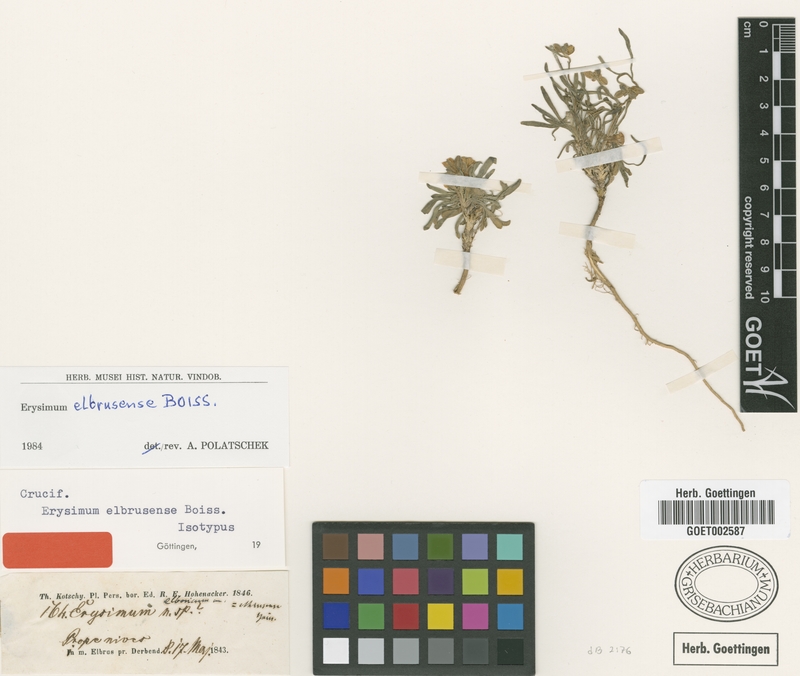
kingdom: Plantae
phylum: Tracheophyta
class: Magnoliopsida
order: Brassicales
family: Brassicaceae
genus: Erysimum
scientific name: Erysimum elbrusense
